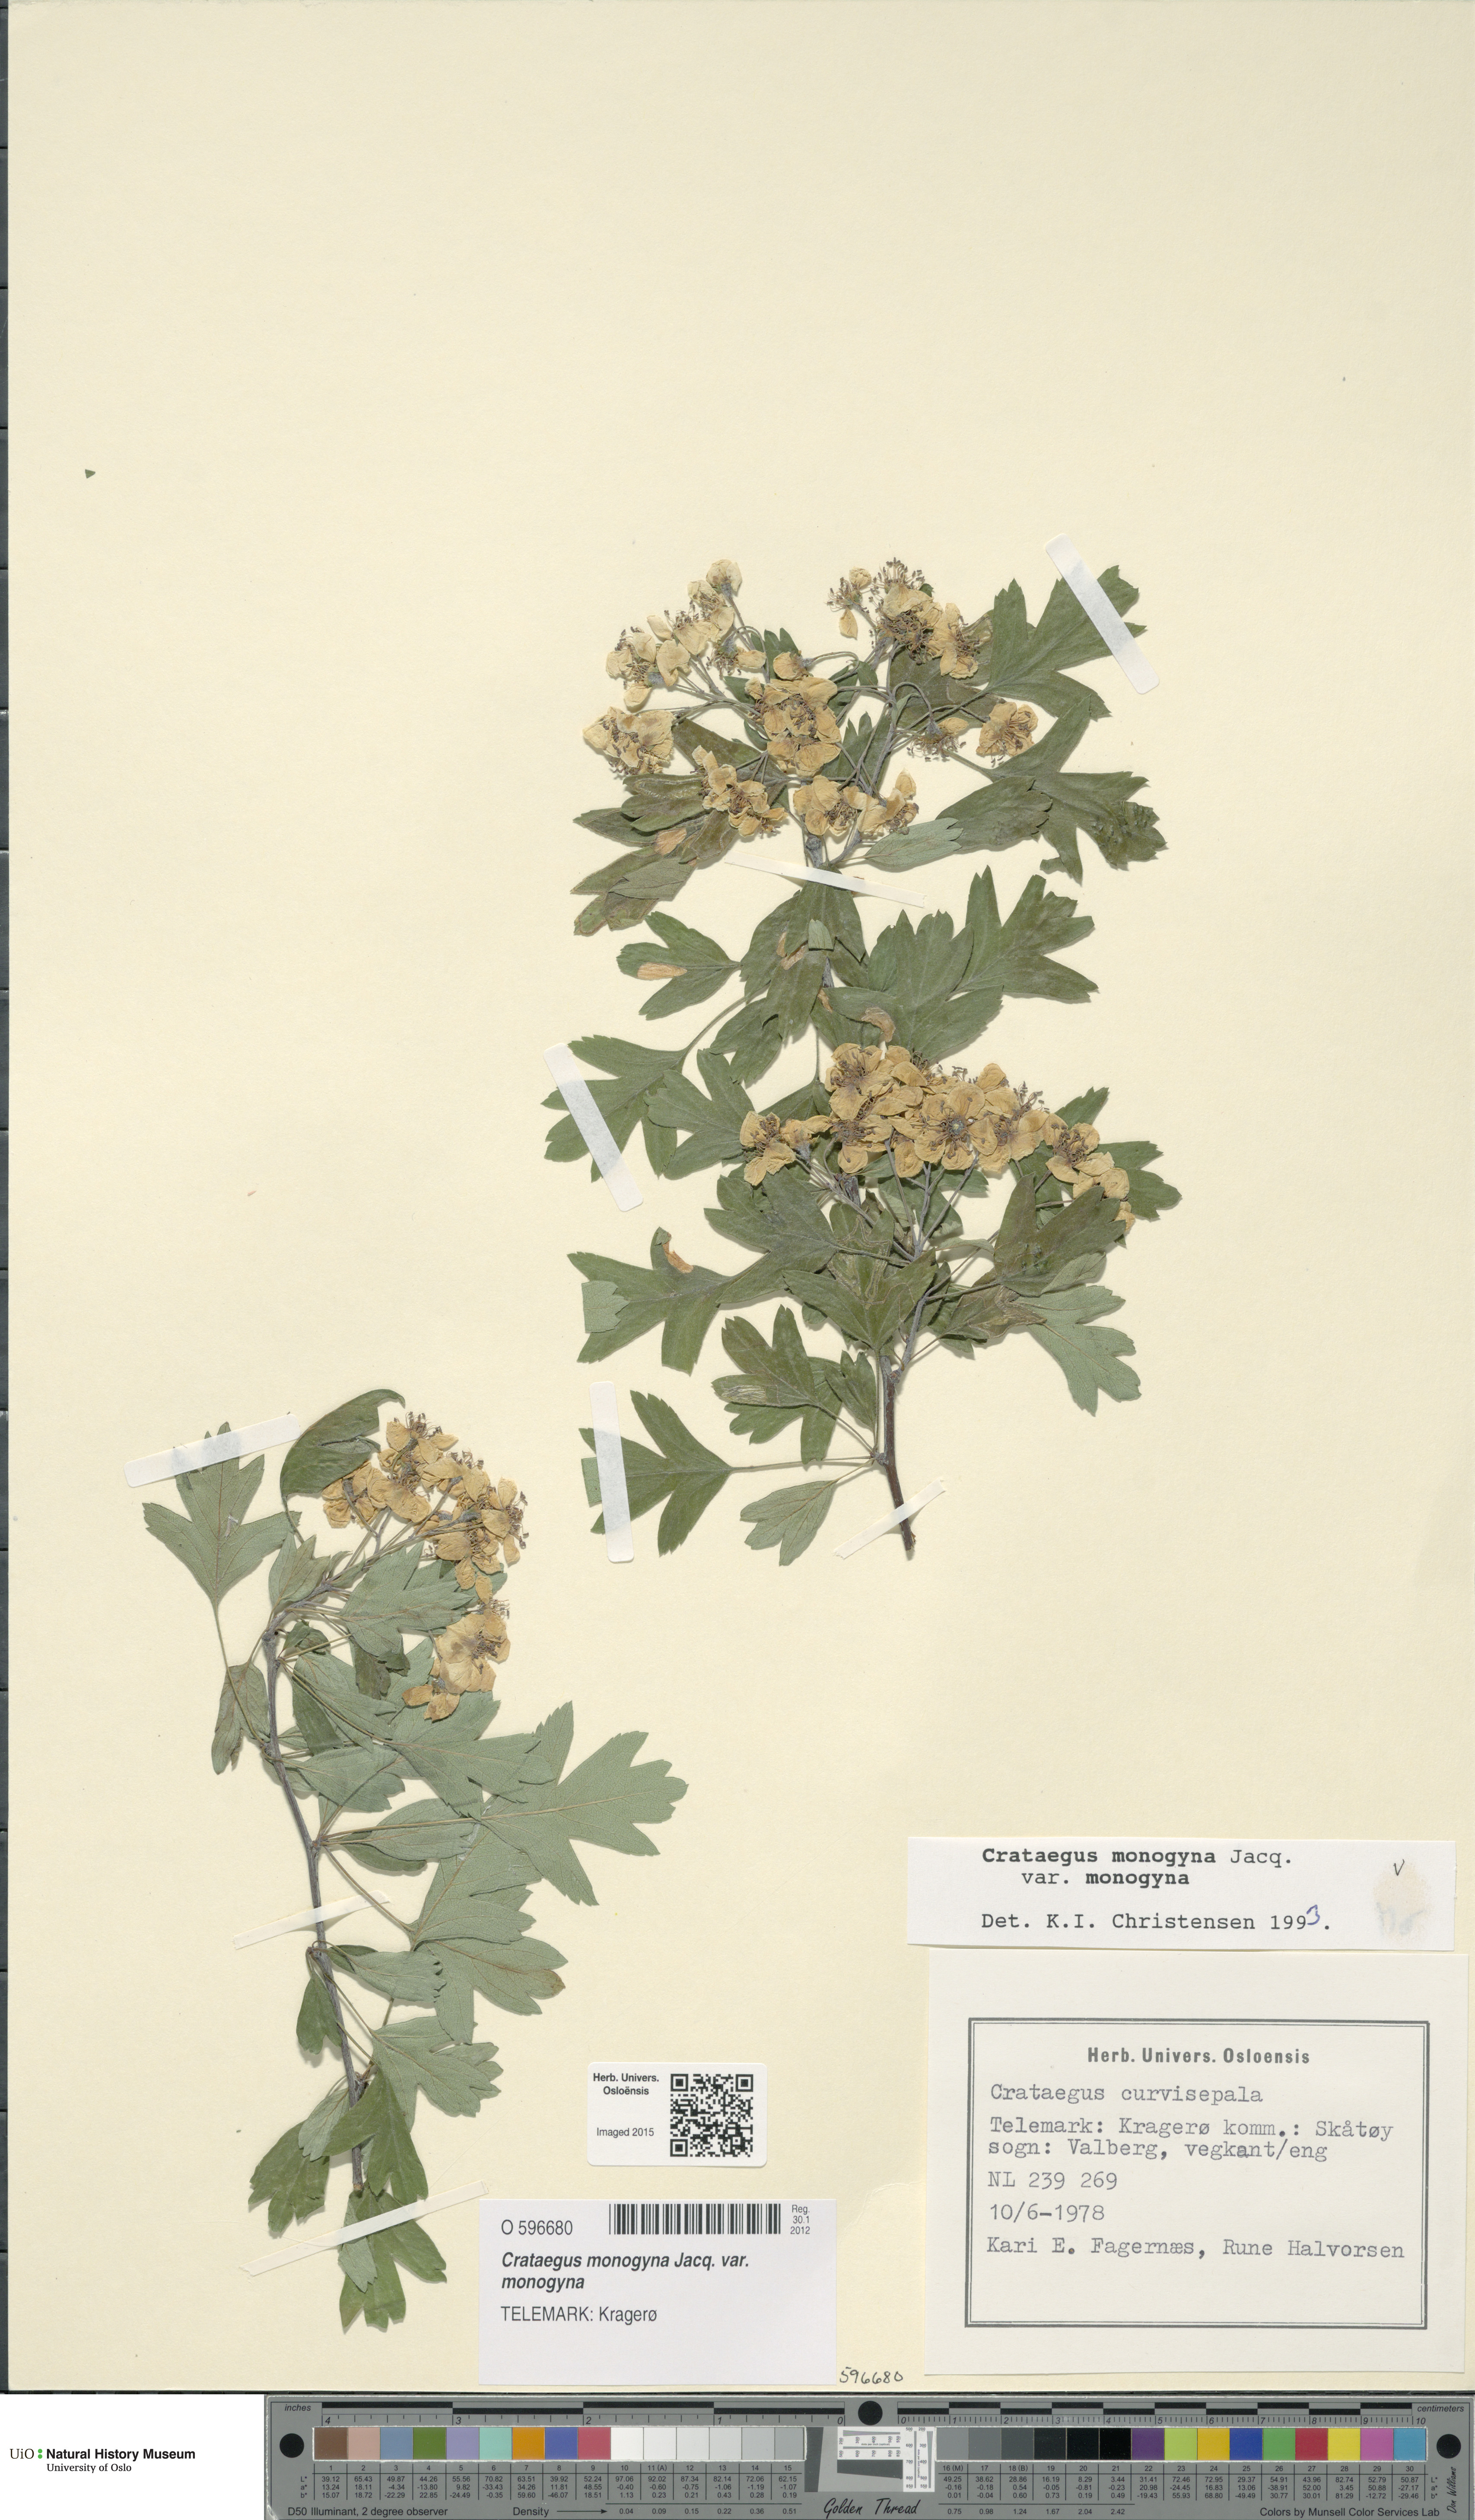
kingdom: Plantae
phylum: Tracheophyta
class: Magnoliopsida
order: Rosales
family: Rosaceae
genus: Crataegus
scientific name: Crataegus monogyna
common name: Hawthorn
